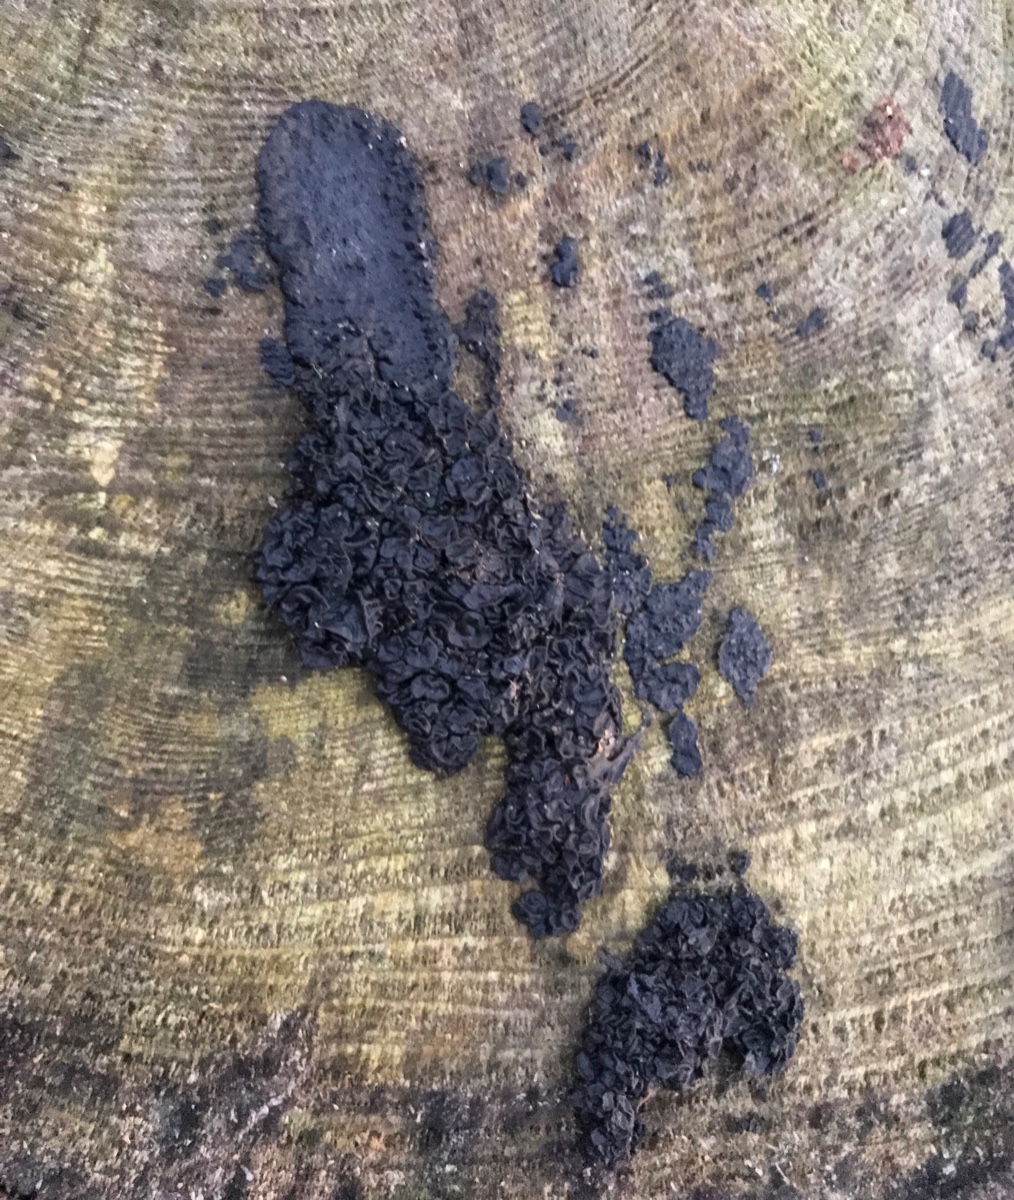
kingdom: Fungi
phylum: Basidiomycota
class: Agaricomycetes
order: Auriculariales
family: Auriculariaceae
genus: Exidia
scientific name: Exidia pithya
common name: gran-bævretop
